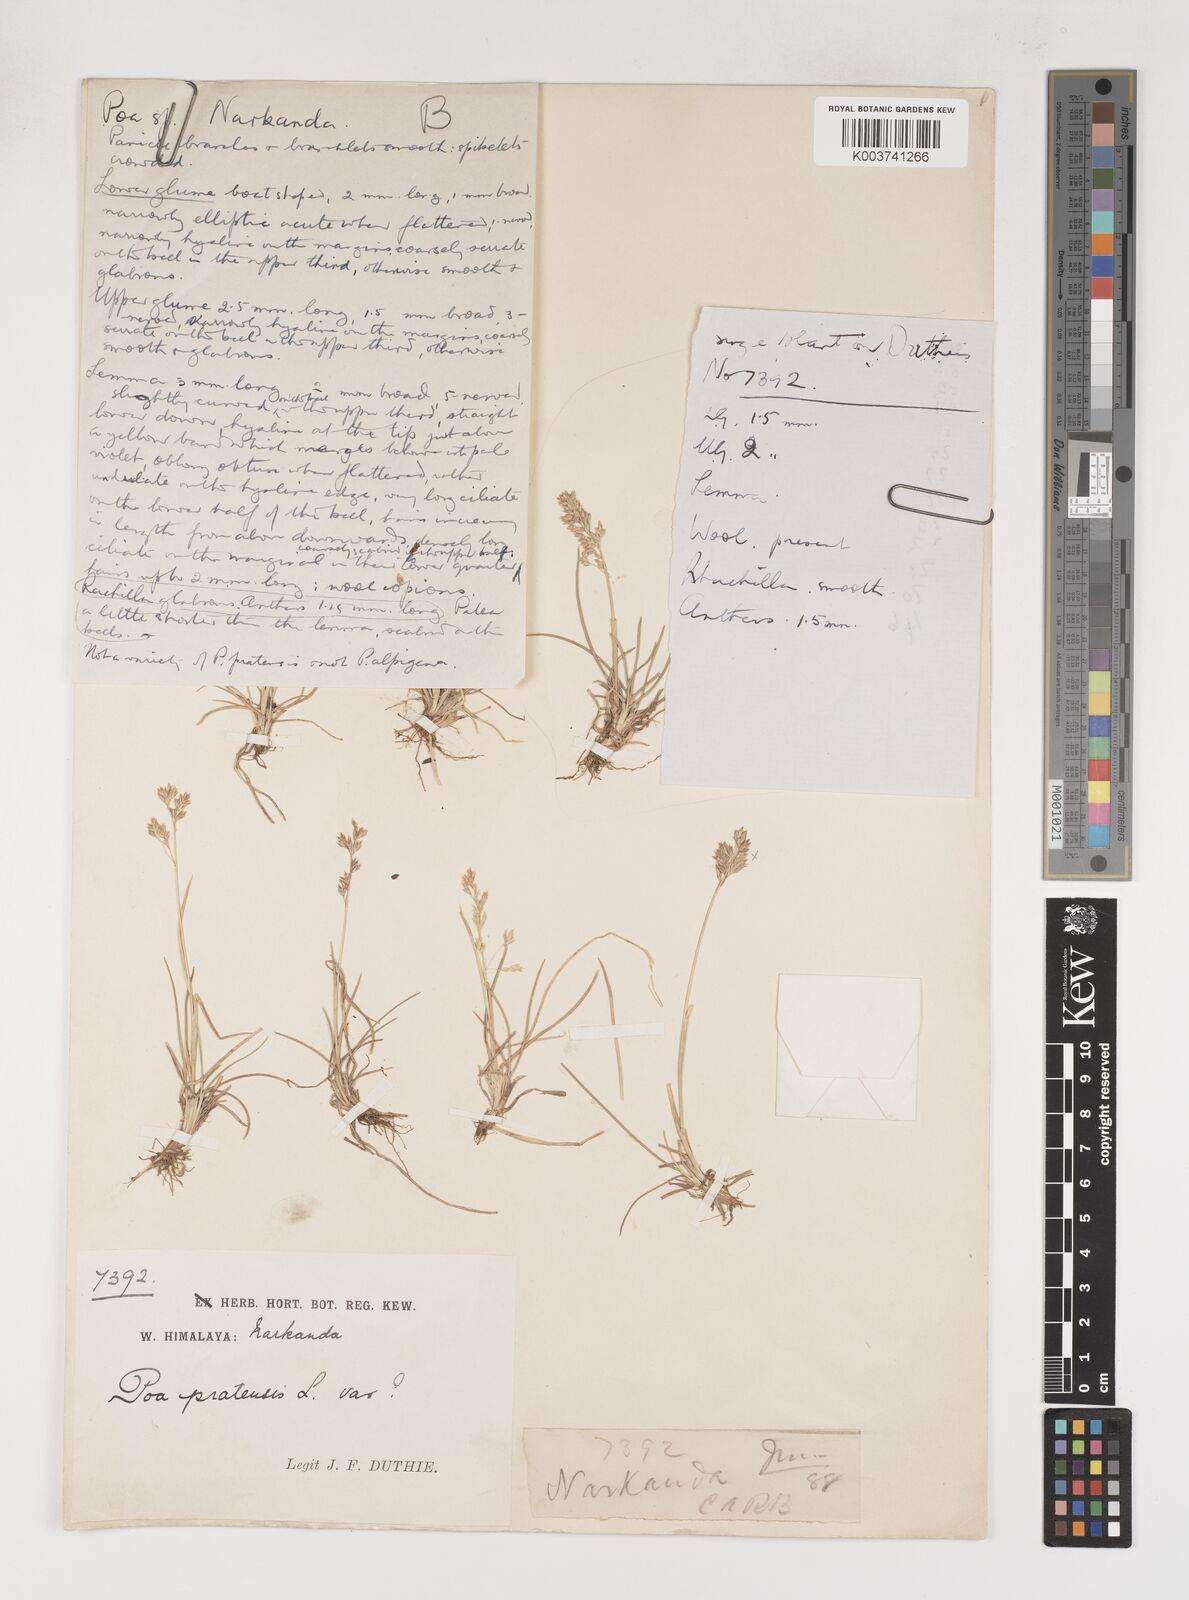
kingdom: Plantae
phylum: Tracheophyta
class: Liliopsida
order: Poales
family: Poaceae
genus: Poa
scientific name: Poa
